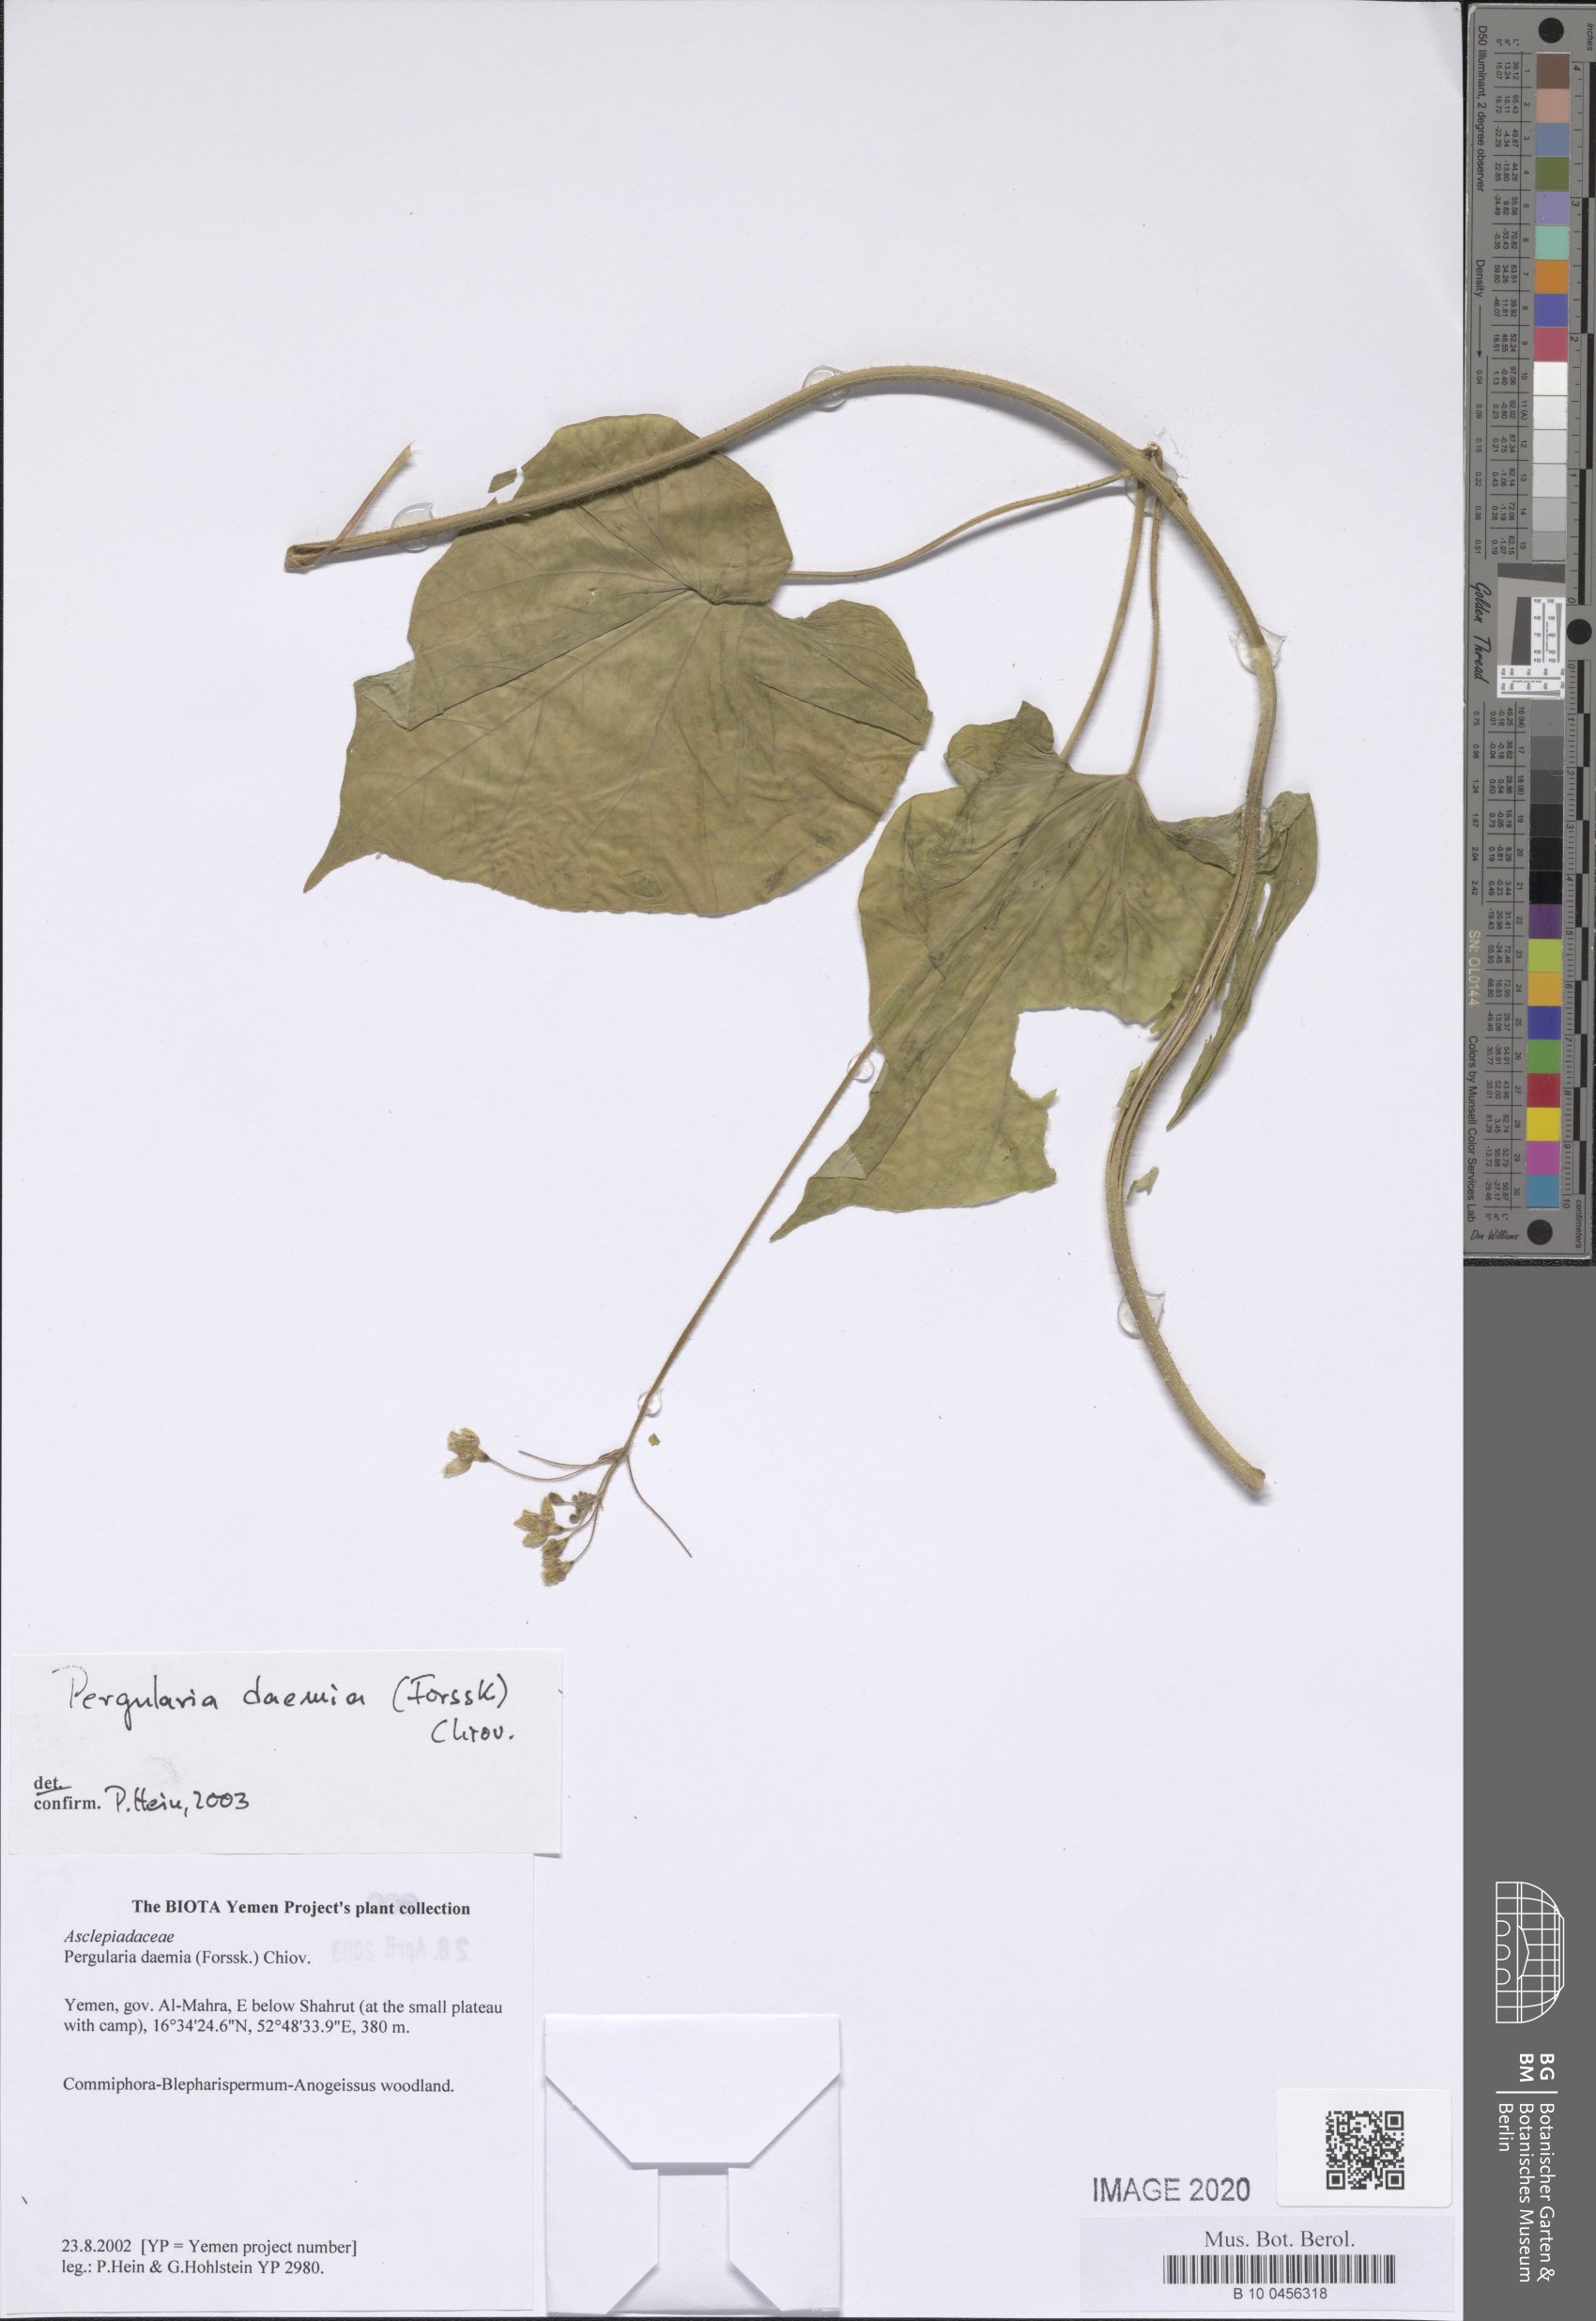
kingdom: Plantae
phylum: Tracheophyta
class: Magnoliopsida
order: Gentianales
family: Apocynaceae
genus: Pergularia
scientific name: Pergularia daemia
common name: Trellis-vine
